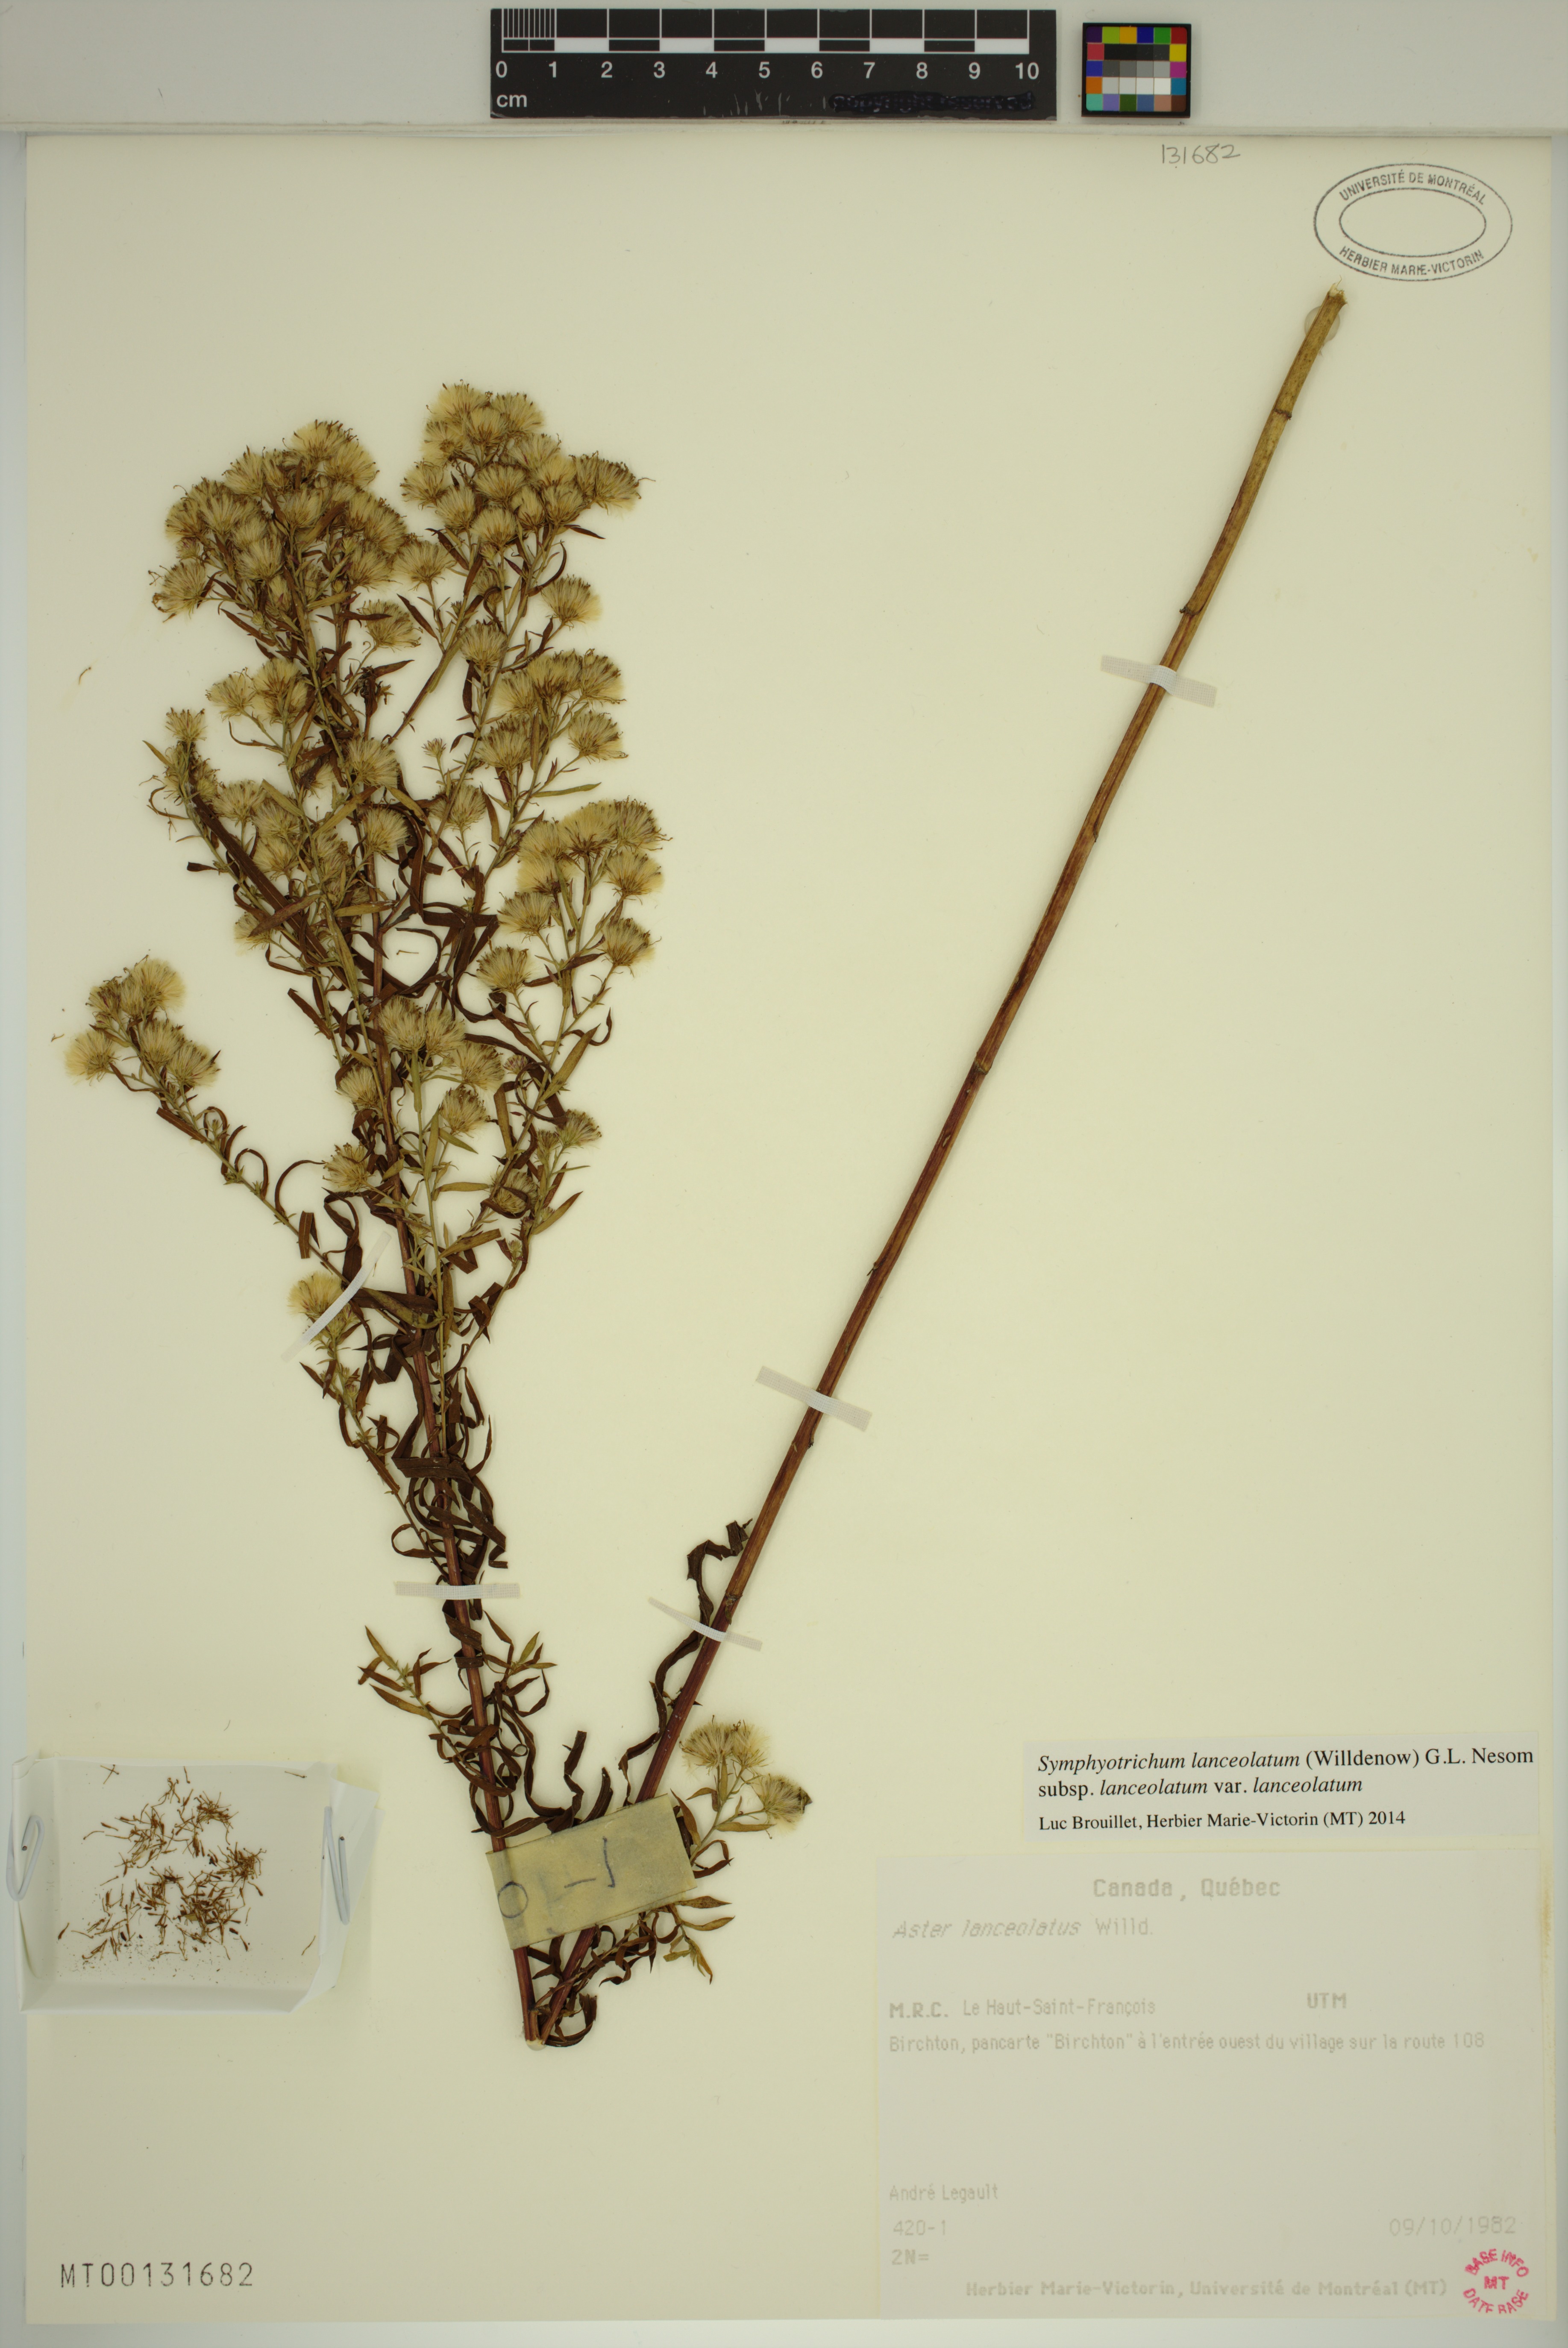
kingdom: Plantae
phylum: Tracheophyta
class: Magnoliopsida
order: Asterales
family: Asteraceae
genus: Symphyotrichum
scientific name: Symphyotrichum lanceolatum
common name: Panicled aster
